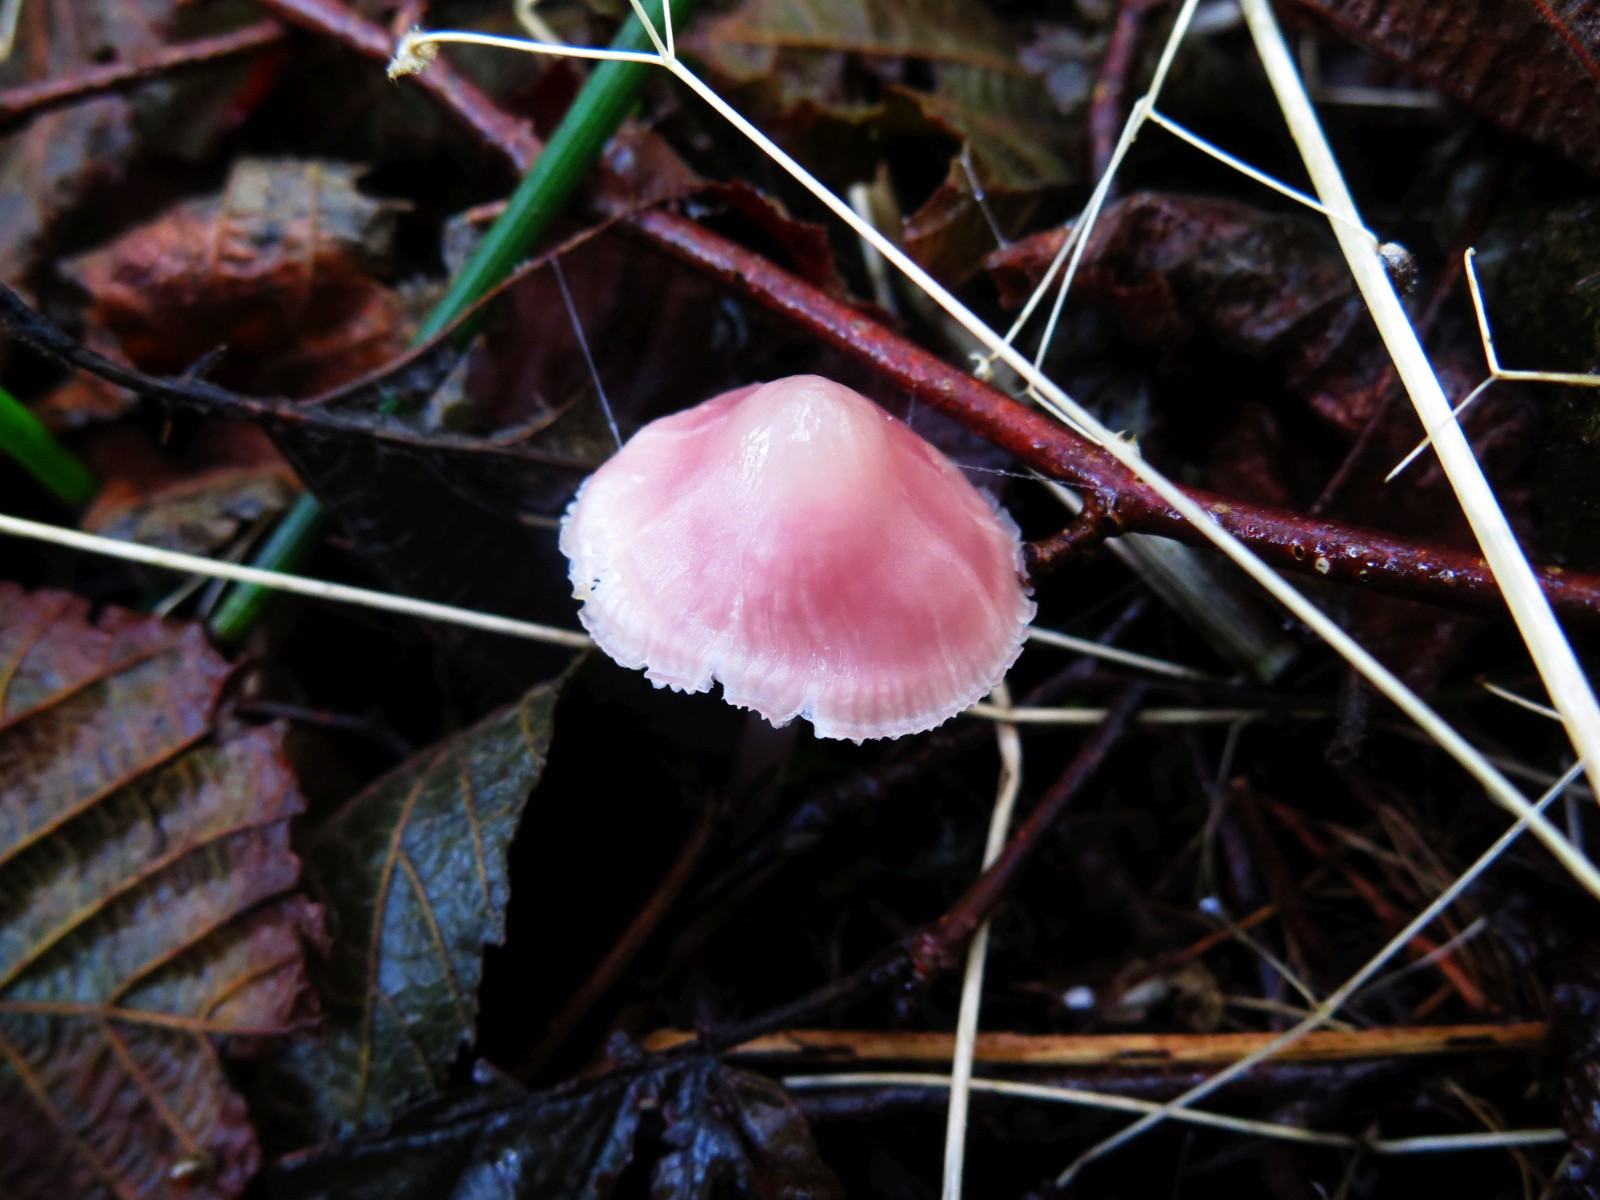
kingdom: Fungi
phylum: Basidiomycota
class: Agaricomycetes
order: Agaricales
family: Mycenaceae
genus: Mycena
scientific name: Mycena rosea
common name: rosa huesvamp
